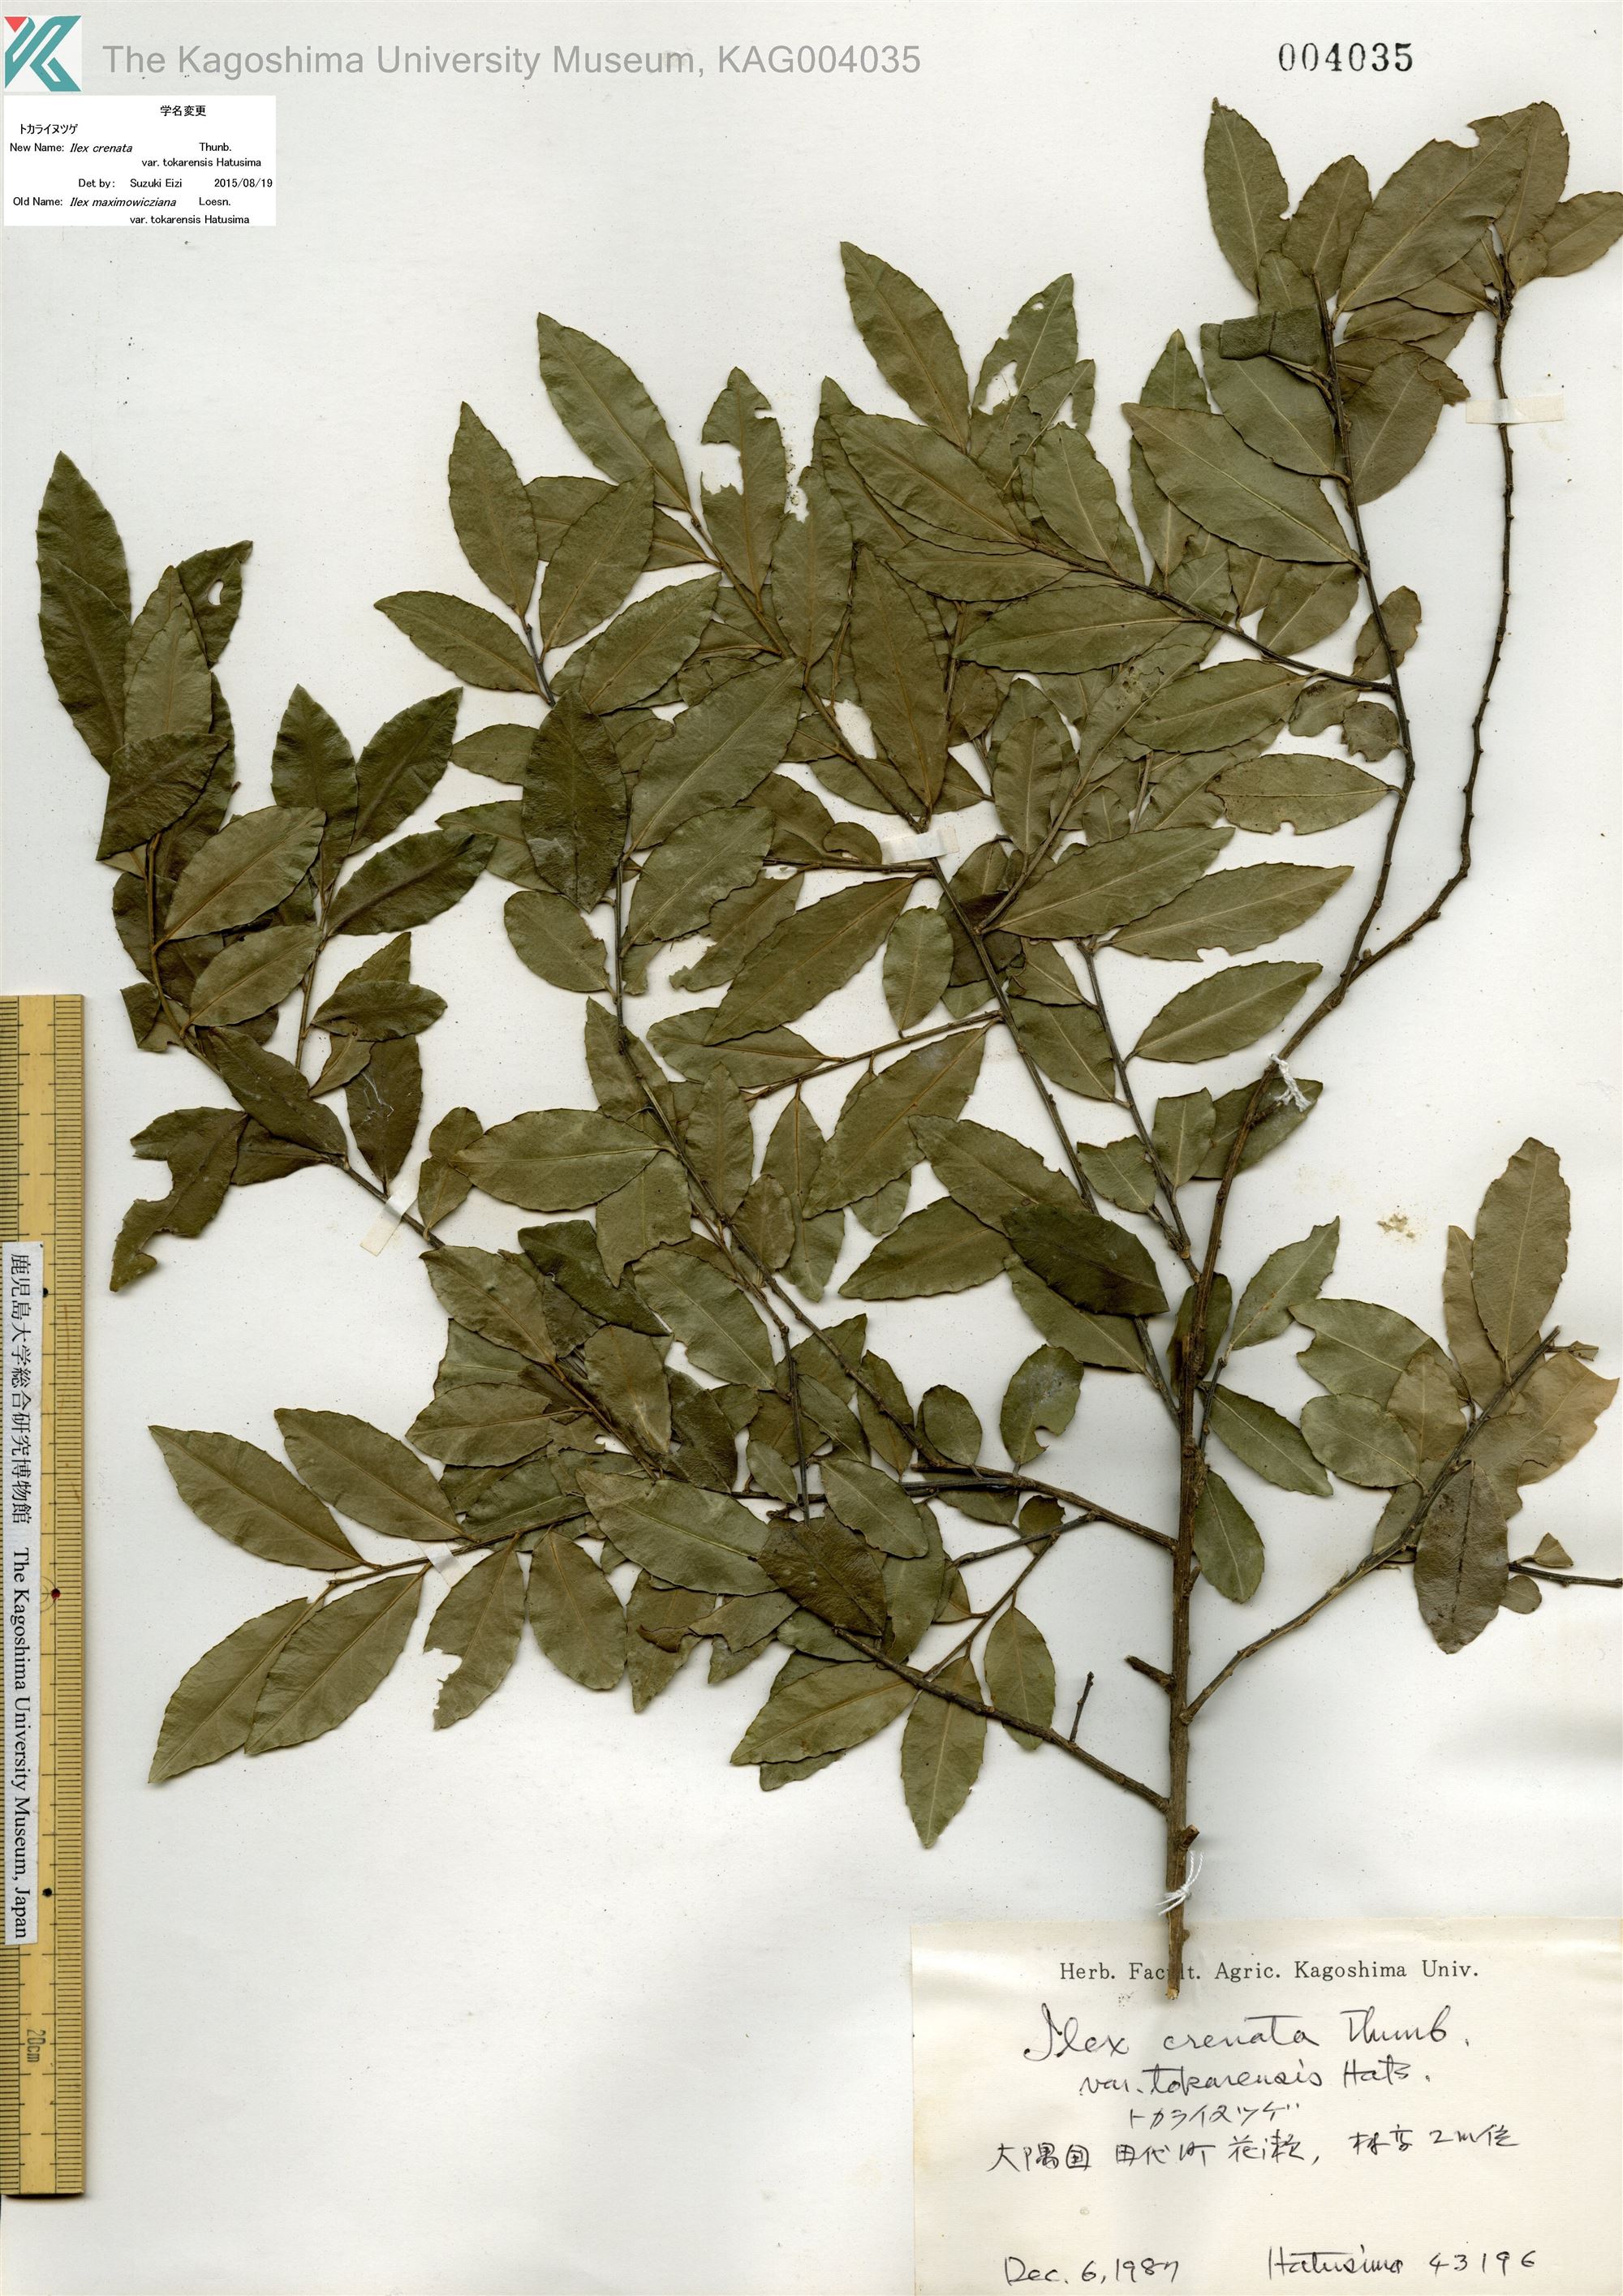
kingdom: Plantae
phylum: Tracheophyta
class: Magnoliopsida
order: Aquifoliales
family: Aquifoliaceae
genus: Ilex
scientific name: Ilex crenata
